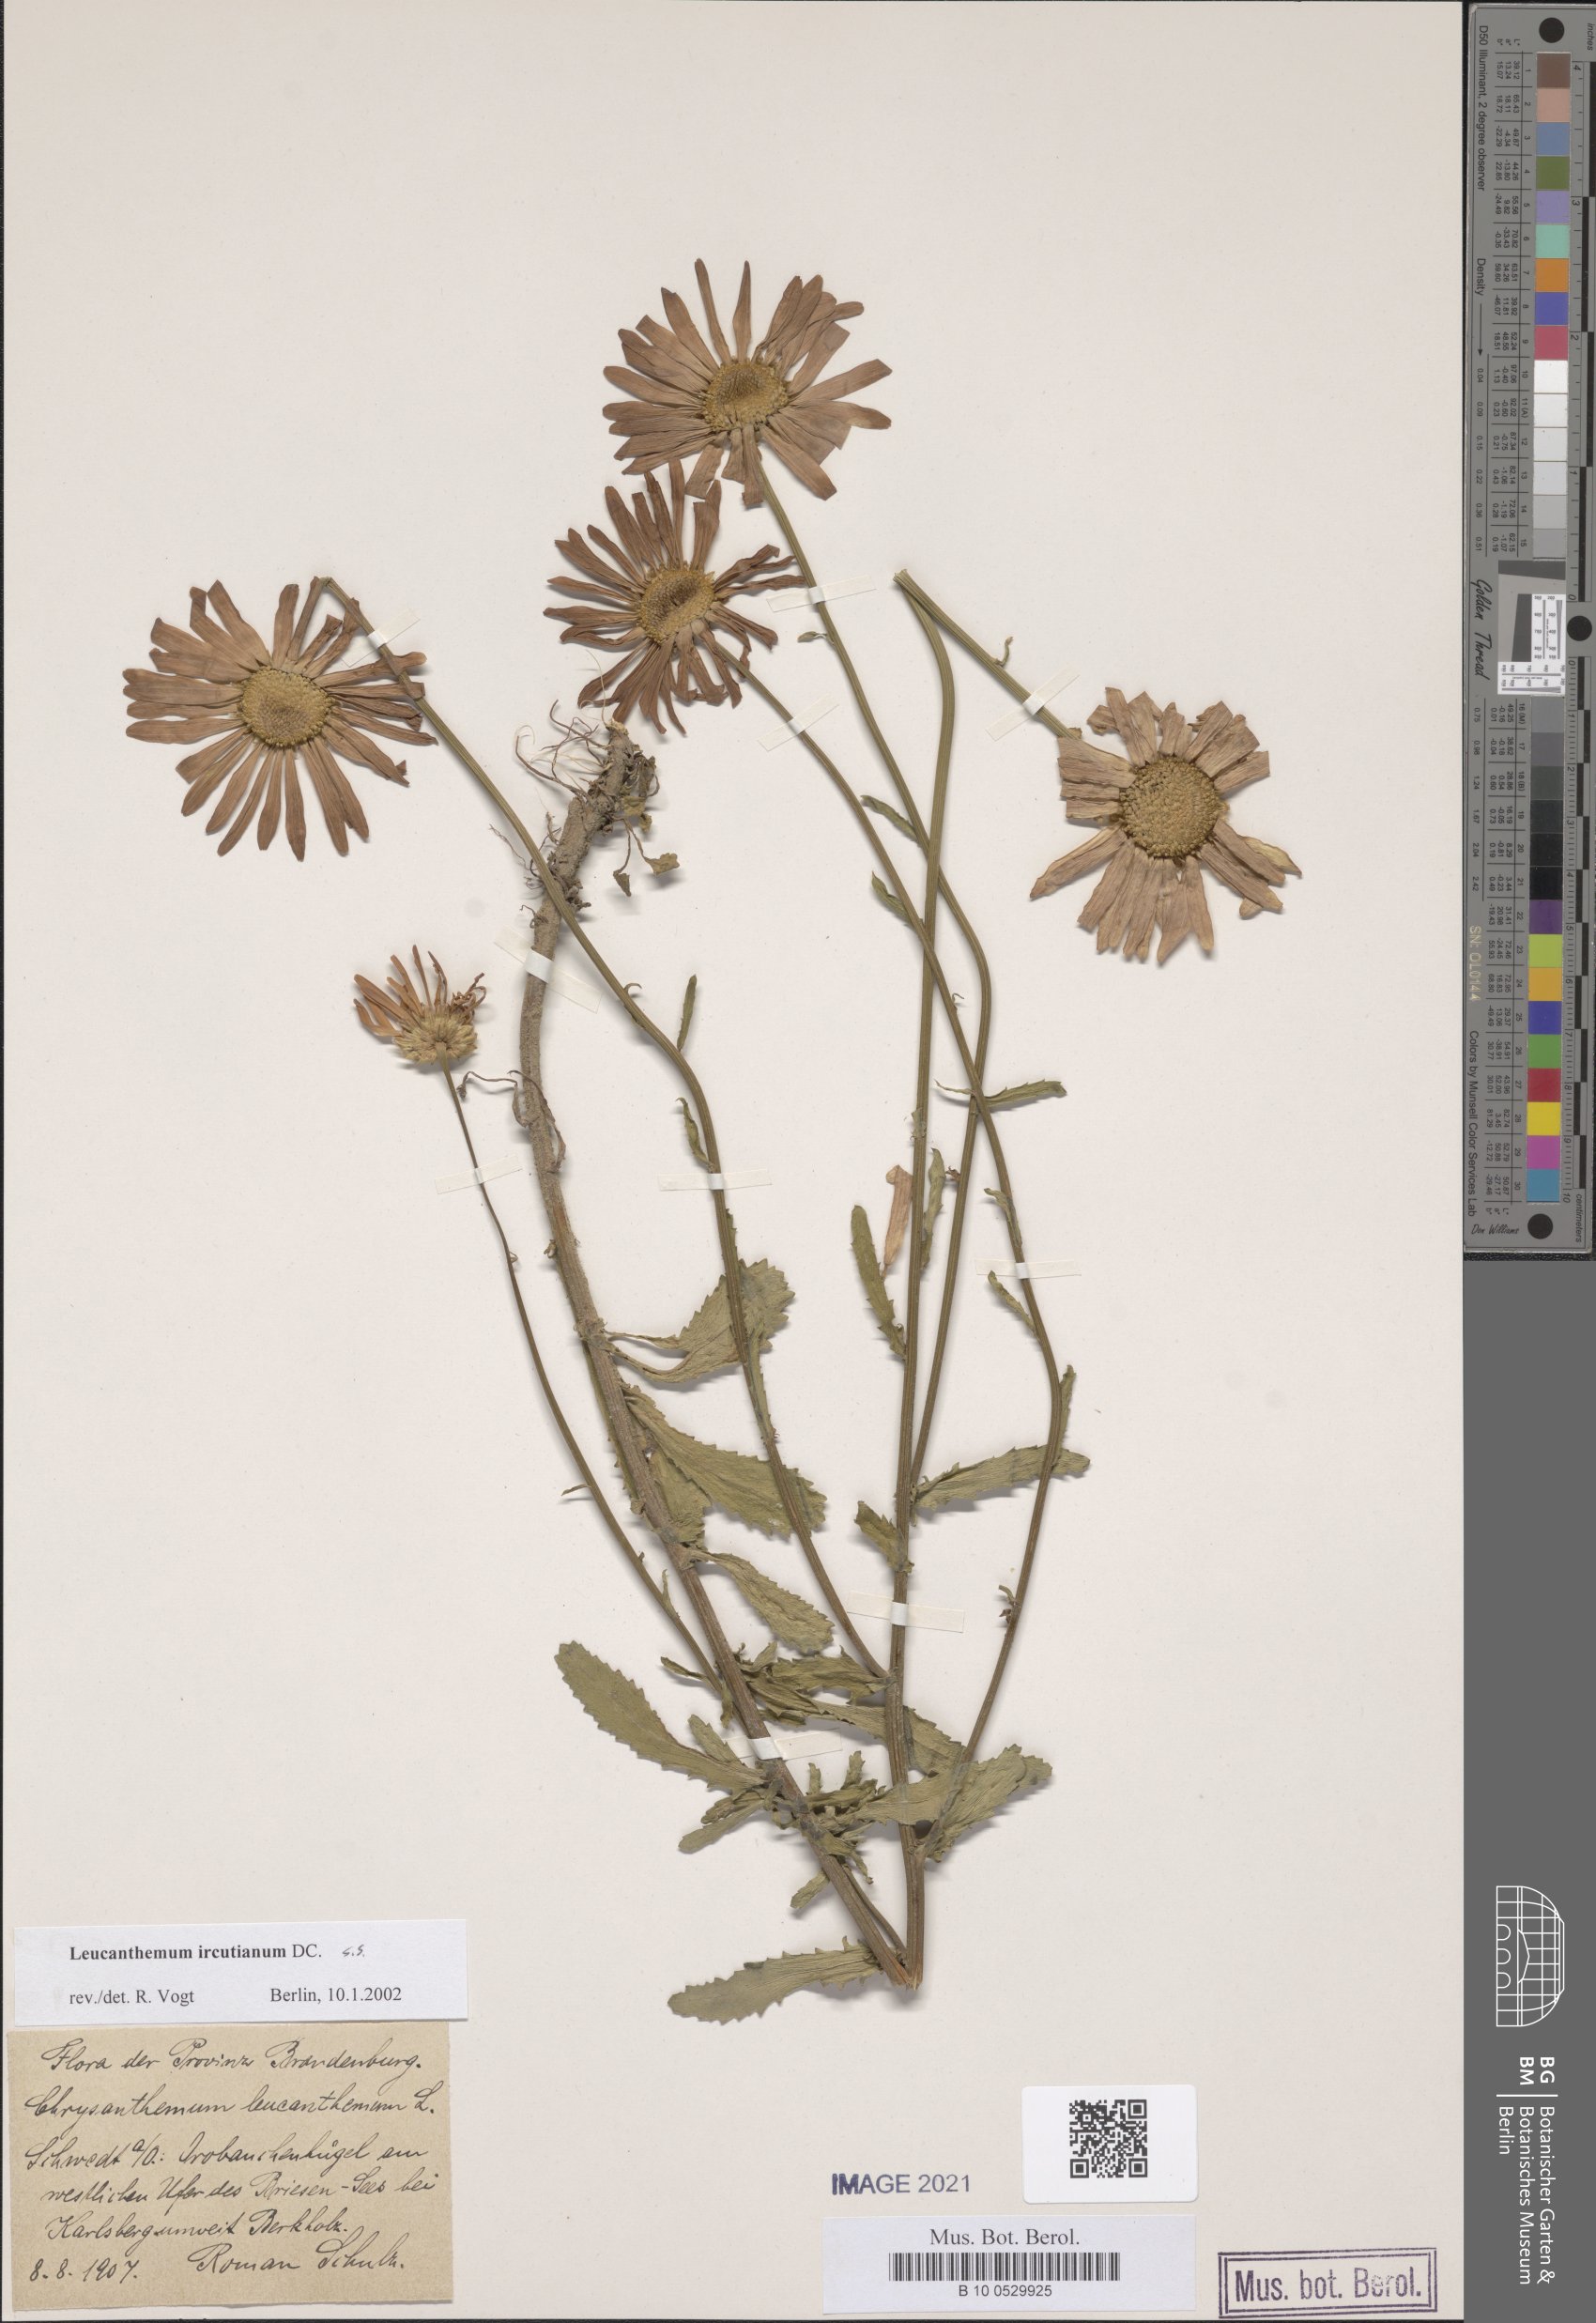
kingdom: Plantae
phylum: Tracheophyta
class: Magnoliopsida
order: Asterales
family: Asteraceae
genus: Leucanthemum
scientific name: Leucanthemum ircutianum
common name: Daisy
